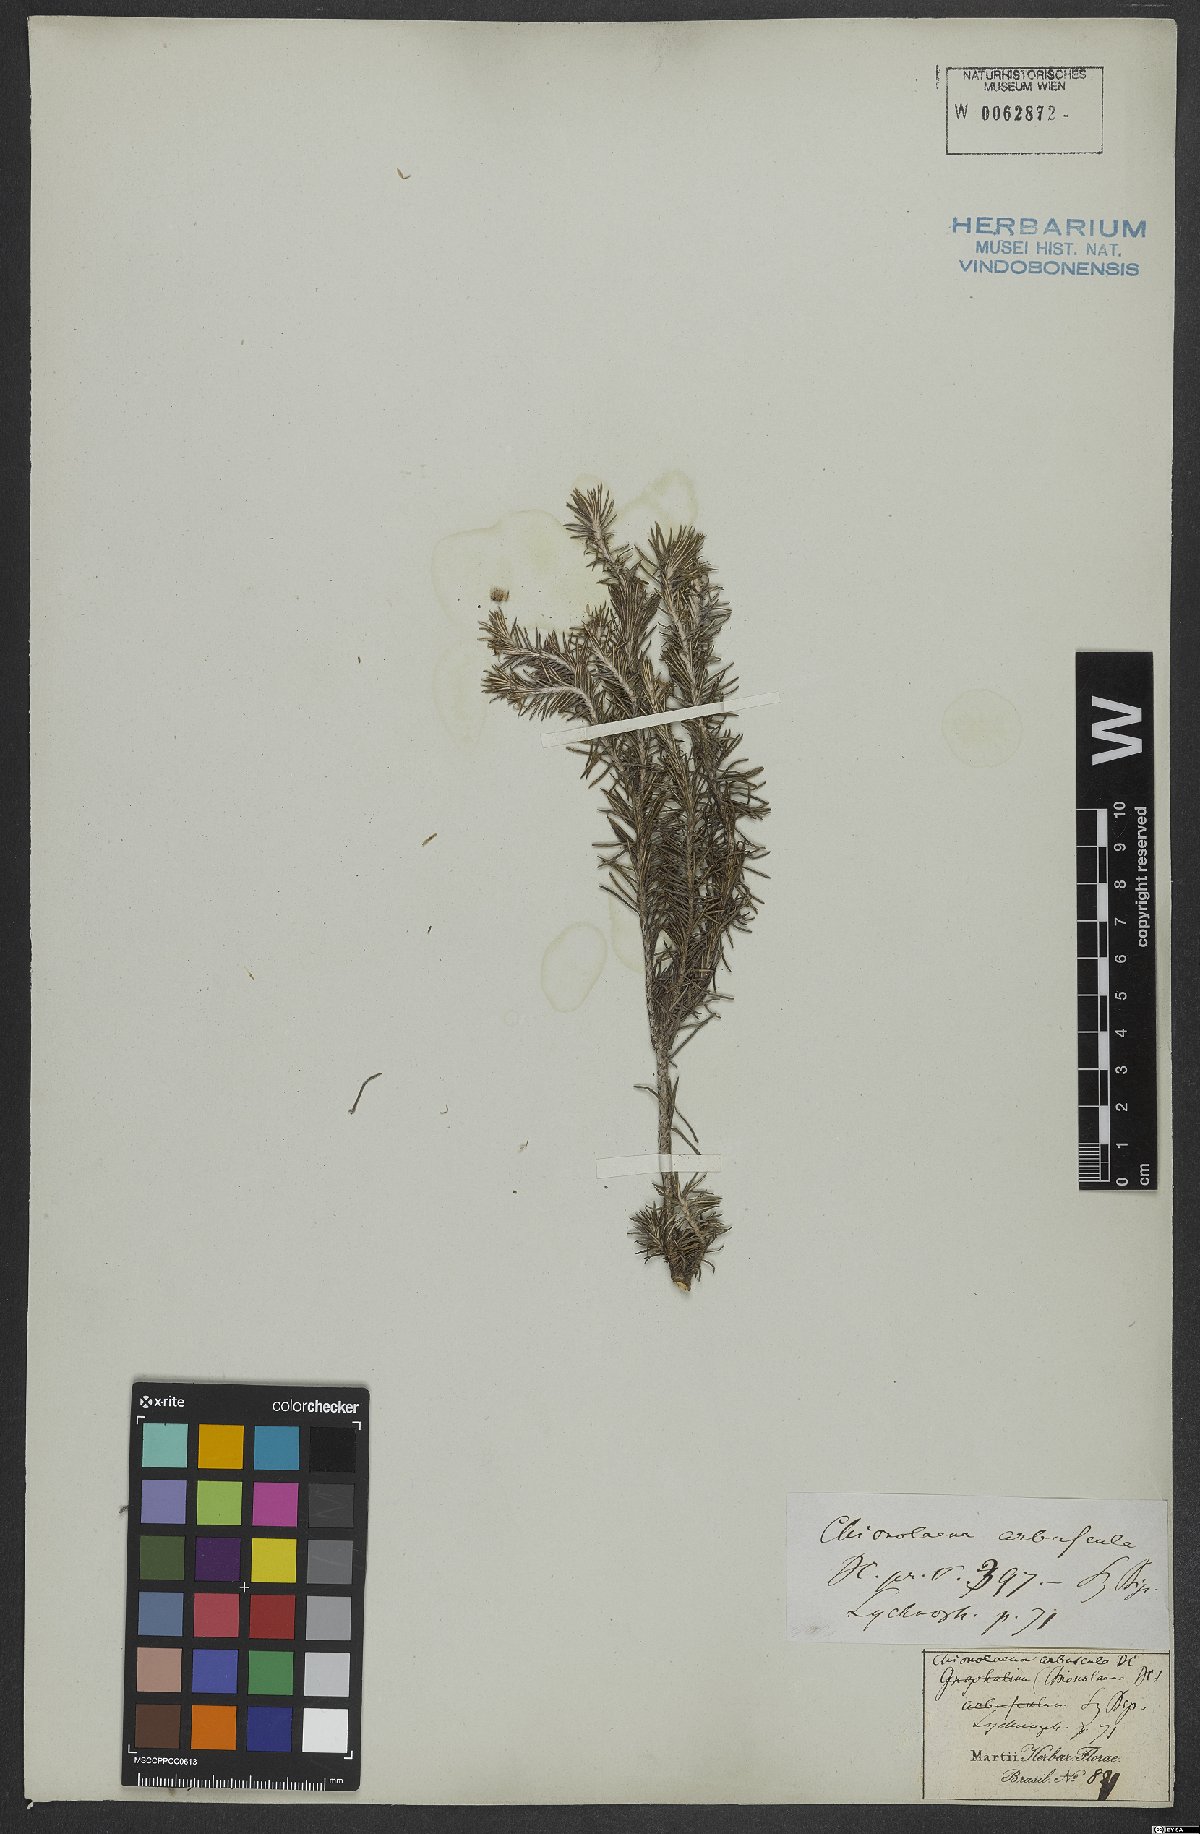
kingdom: Plantae
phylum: Tracheophyta
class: Magnoliopsida
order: Asterales
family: Asteraceae
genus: Chionolaena
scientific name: Chionolaena arbuscula
